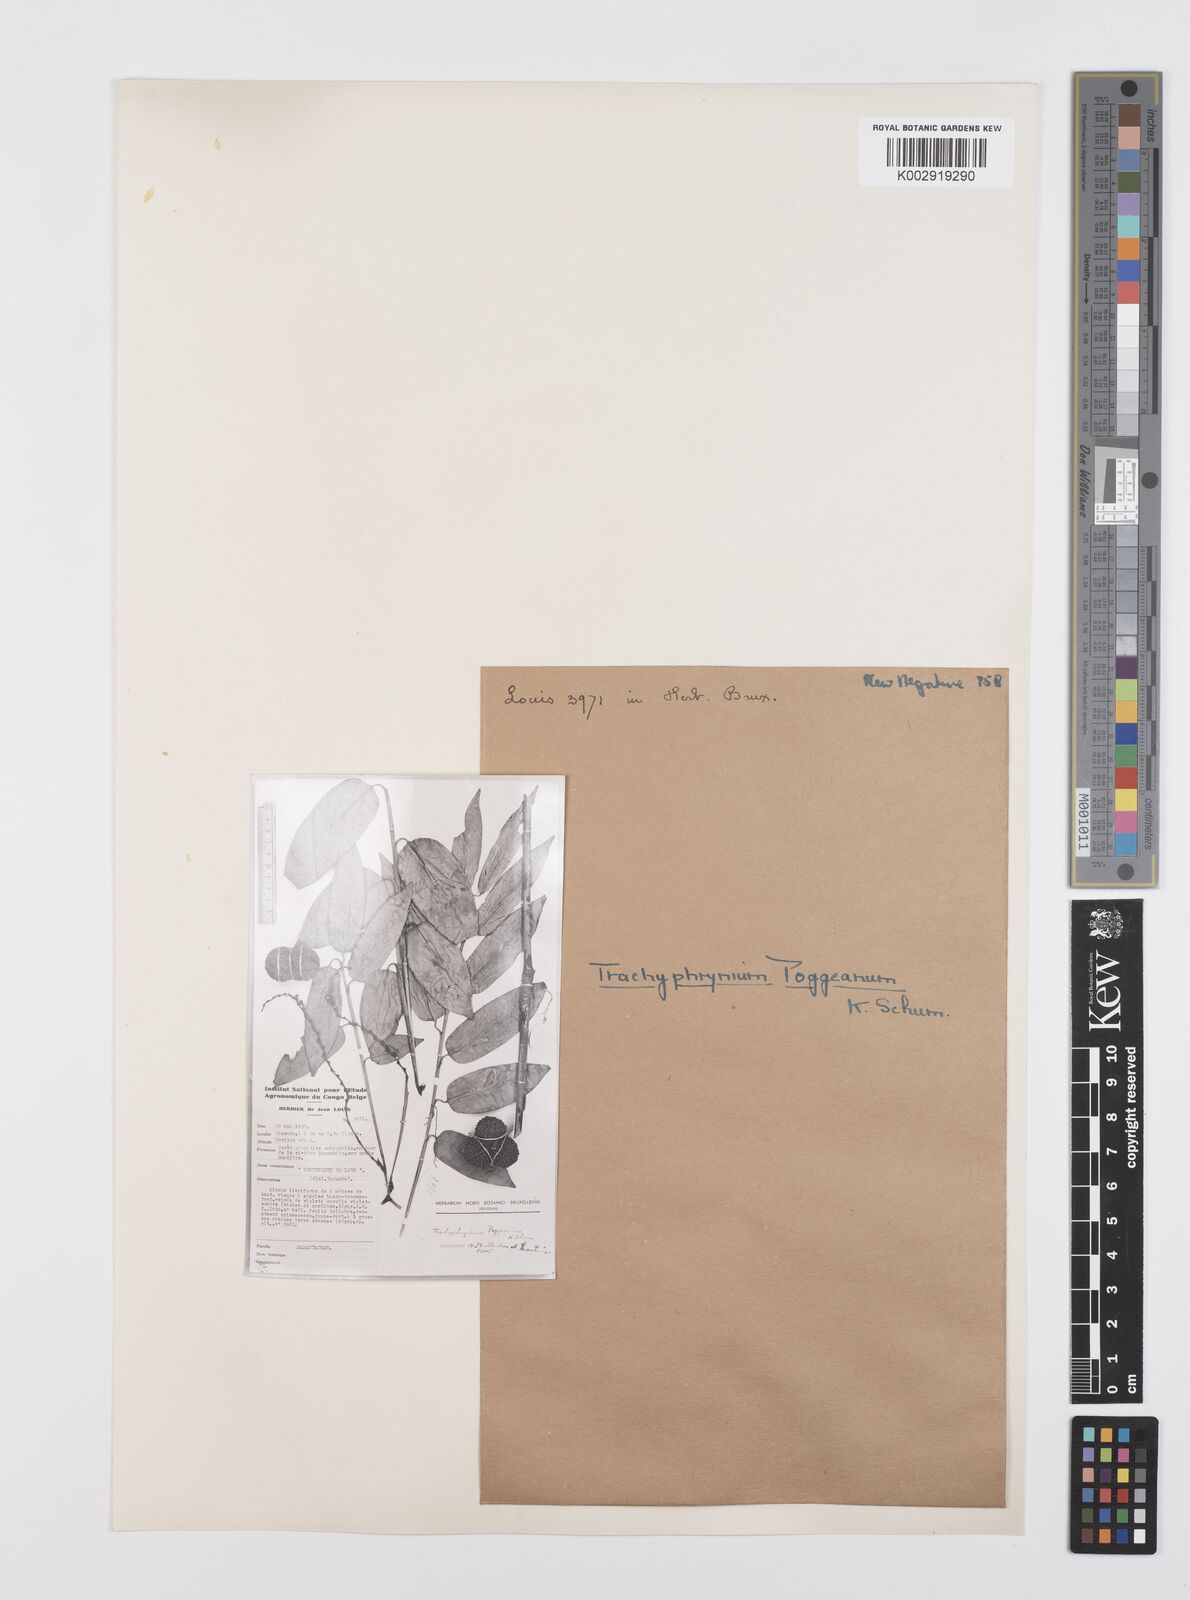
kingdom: Plantae
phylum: Tracheophyta
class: Liliopsida
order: Zingiberales
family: Marantaceae
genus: Hypselodelphys
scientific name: Hypselodelphys poggeana
